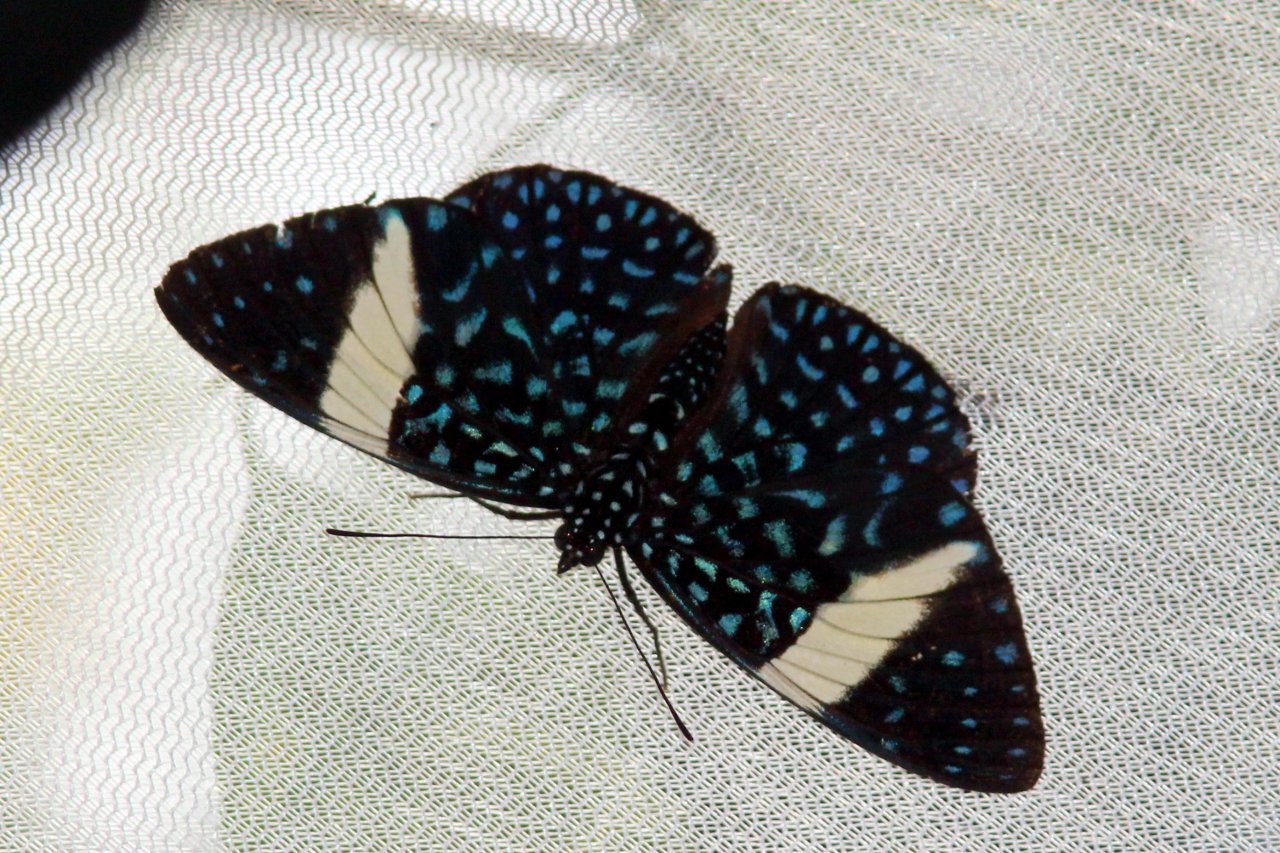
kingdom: Animalia
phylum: Arthropoda
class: Insecta
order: Lepidoptera
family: Nymphalidae
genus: Hamadryas
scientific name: Hamadryas laodamia
